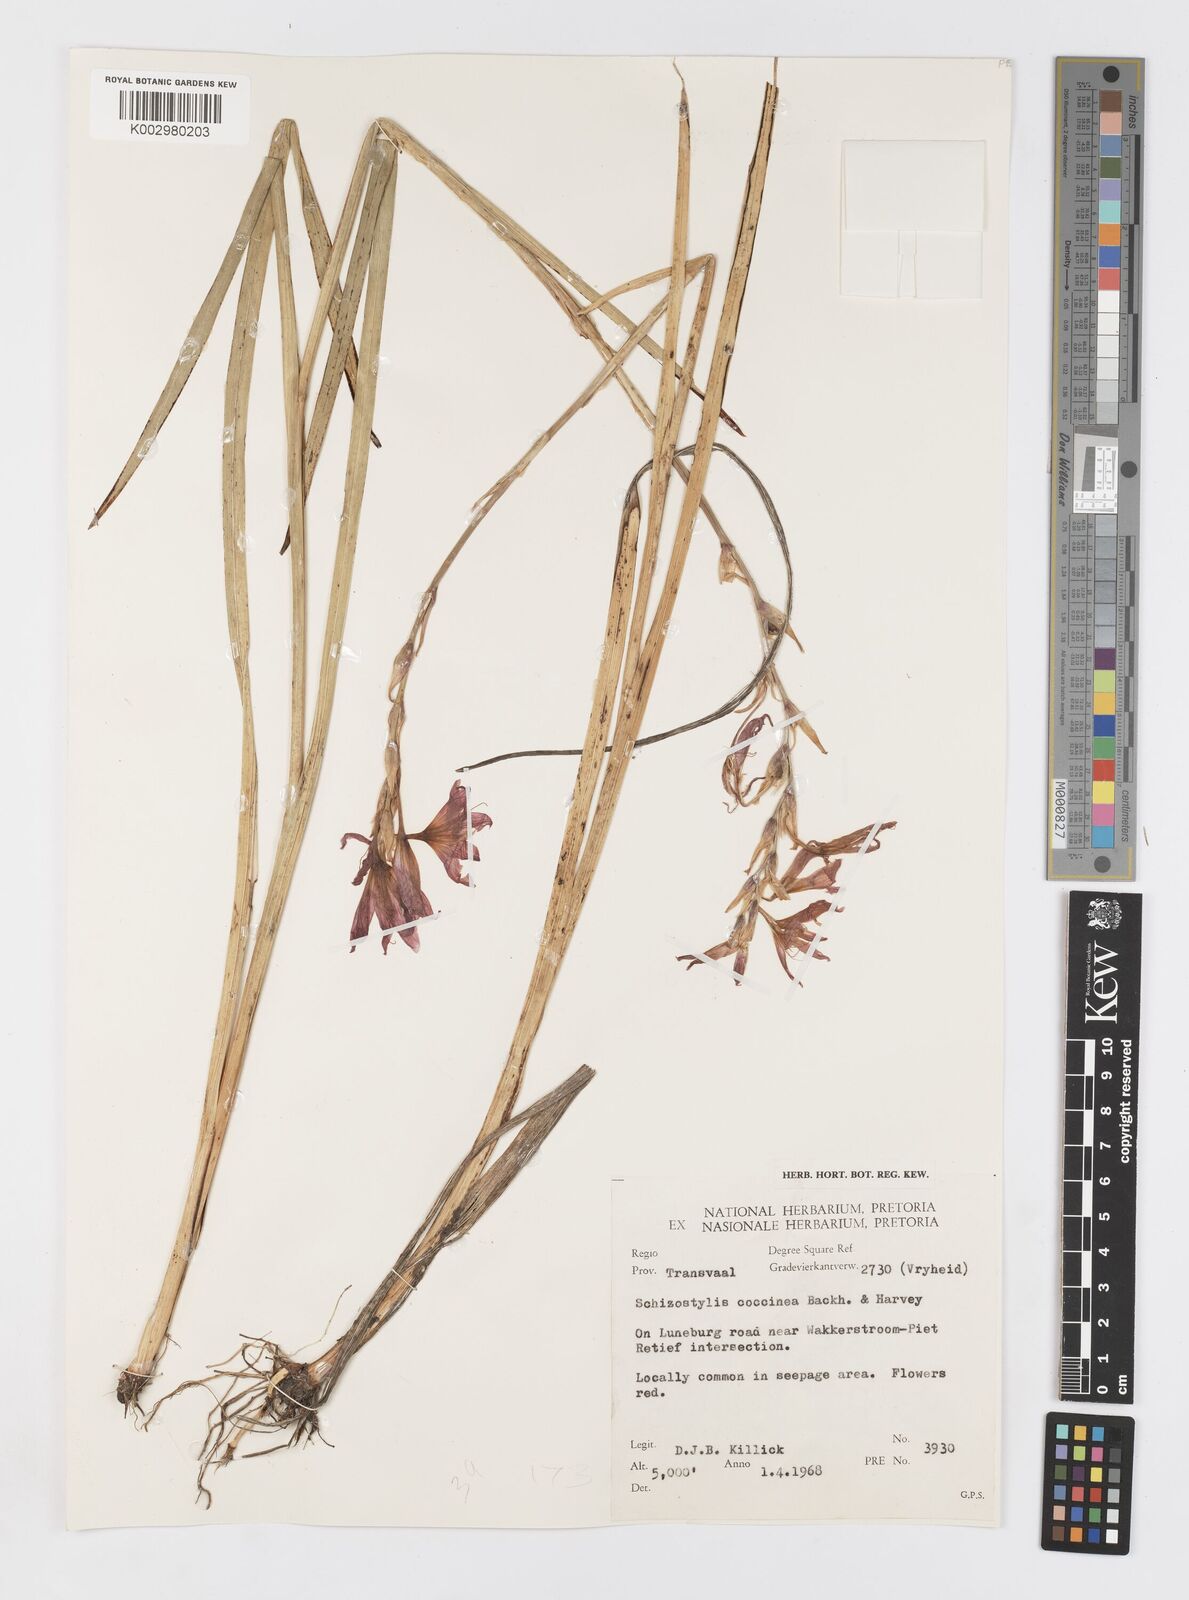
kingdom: Plantae
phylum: Tracheophyta
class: Liliopsida
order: Asparagales
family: Iridaceae
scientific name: Iridaceae
